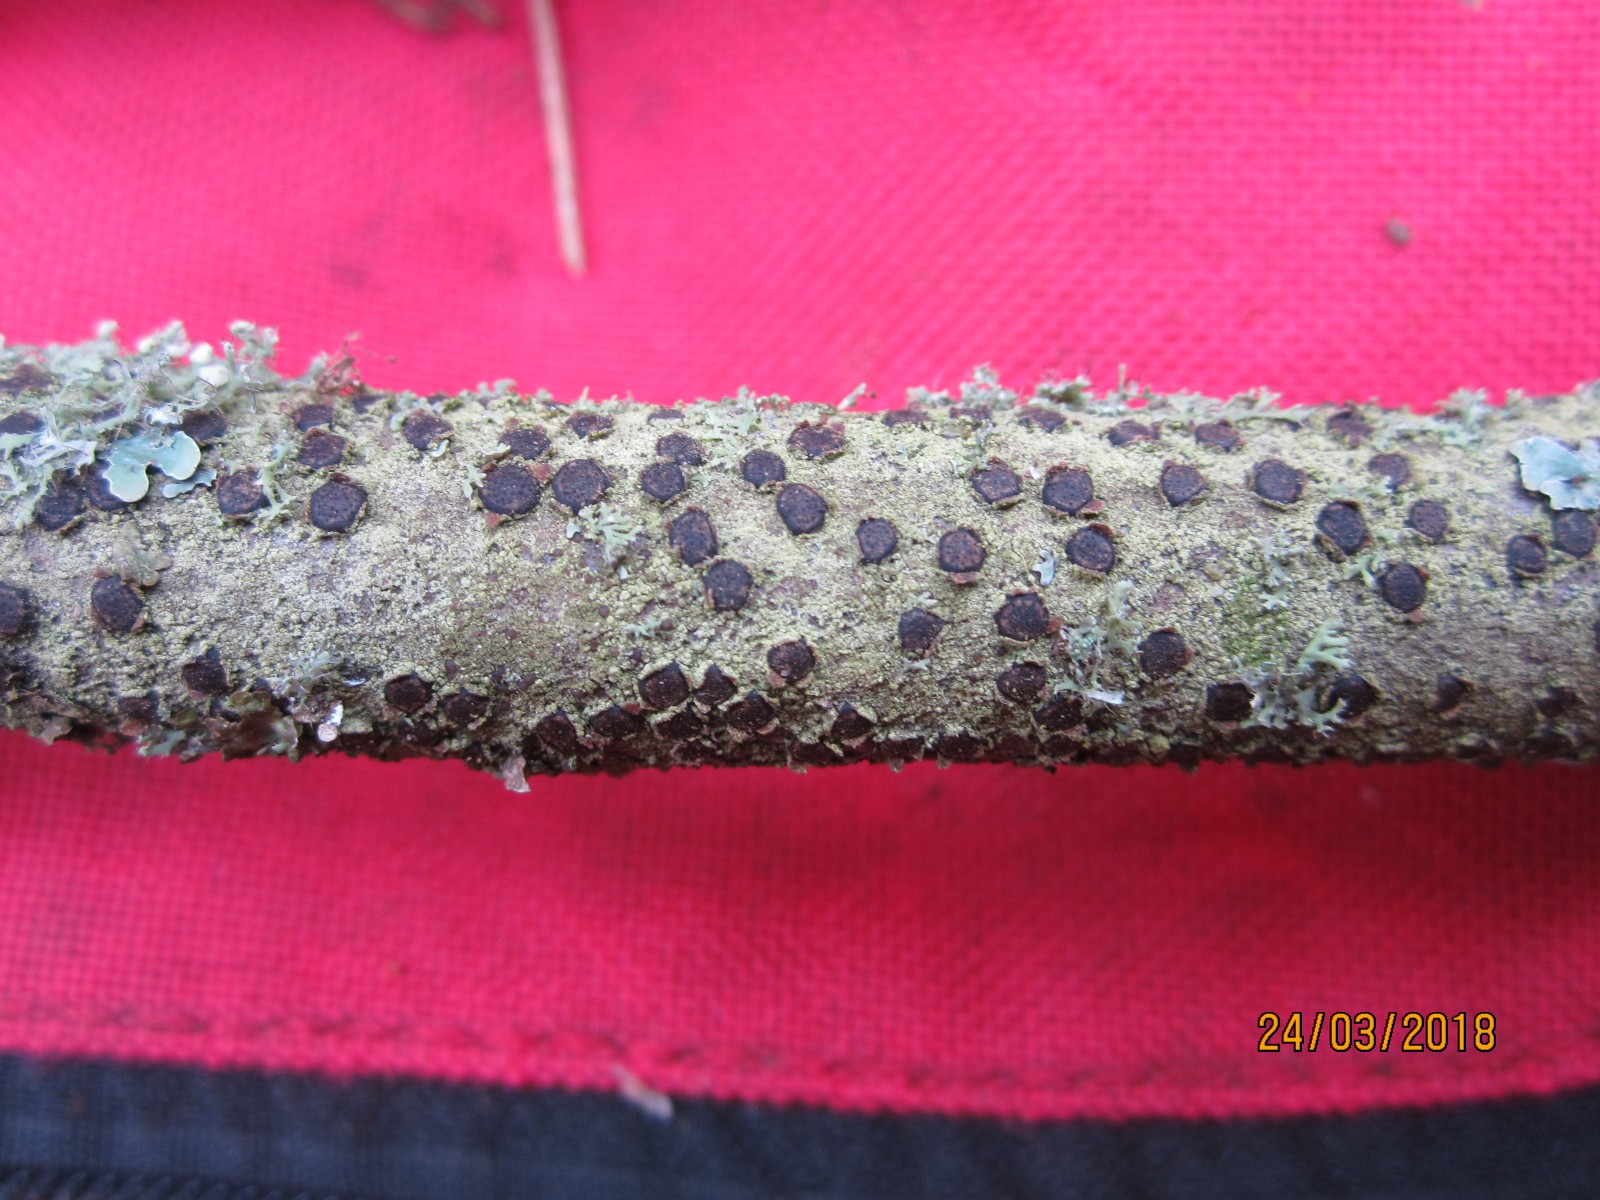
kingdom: Fungi
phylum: Ascomycota
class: Sordariomycetes
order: Xylariales
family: Diatrypaceae
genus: Diatrype
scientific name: Diatrype disciformis
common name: kant-kulskorpe
